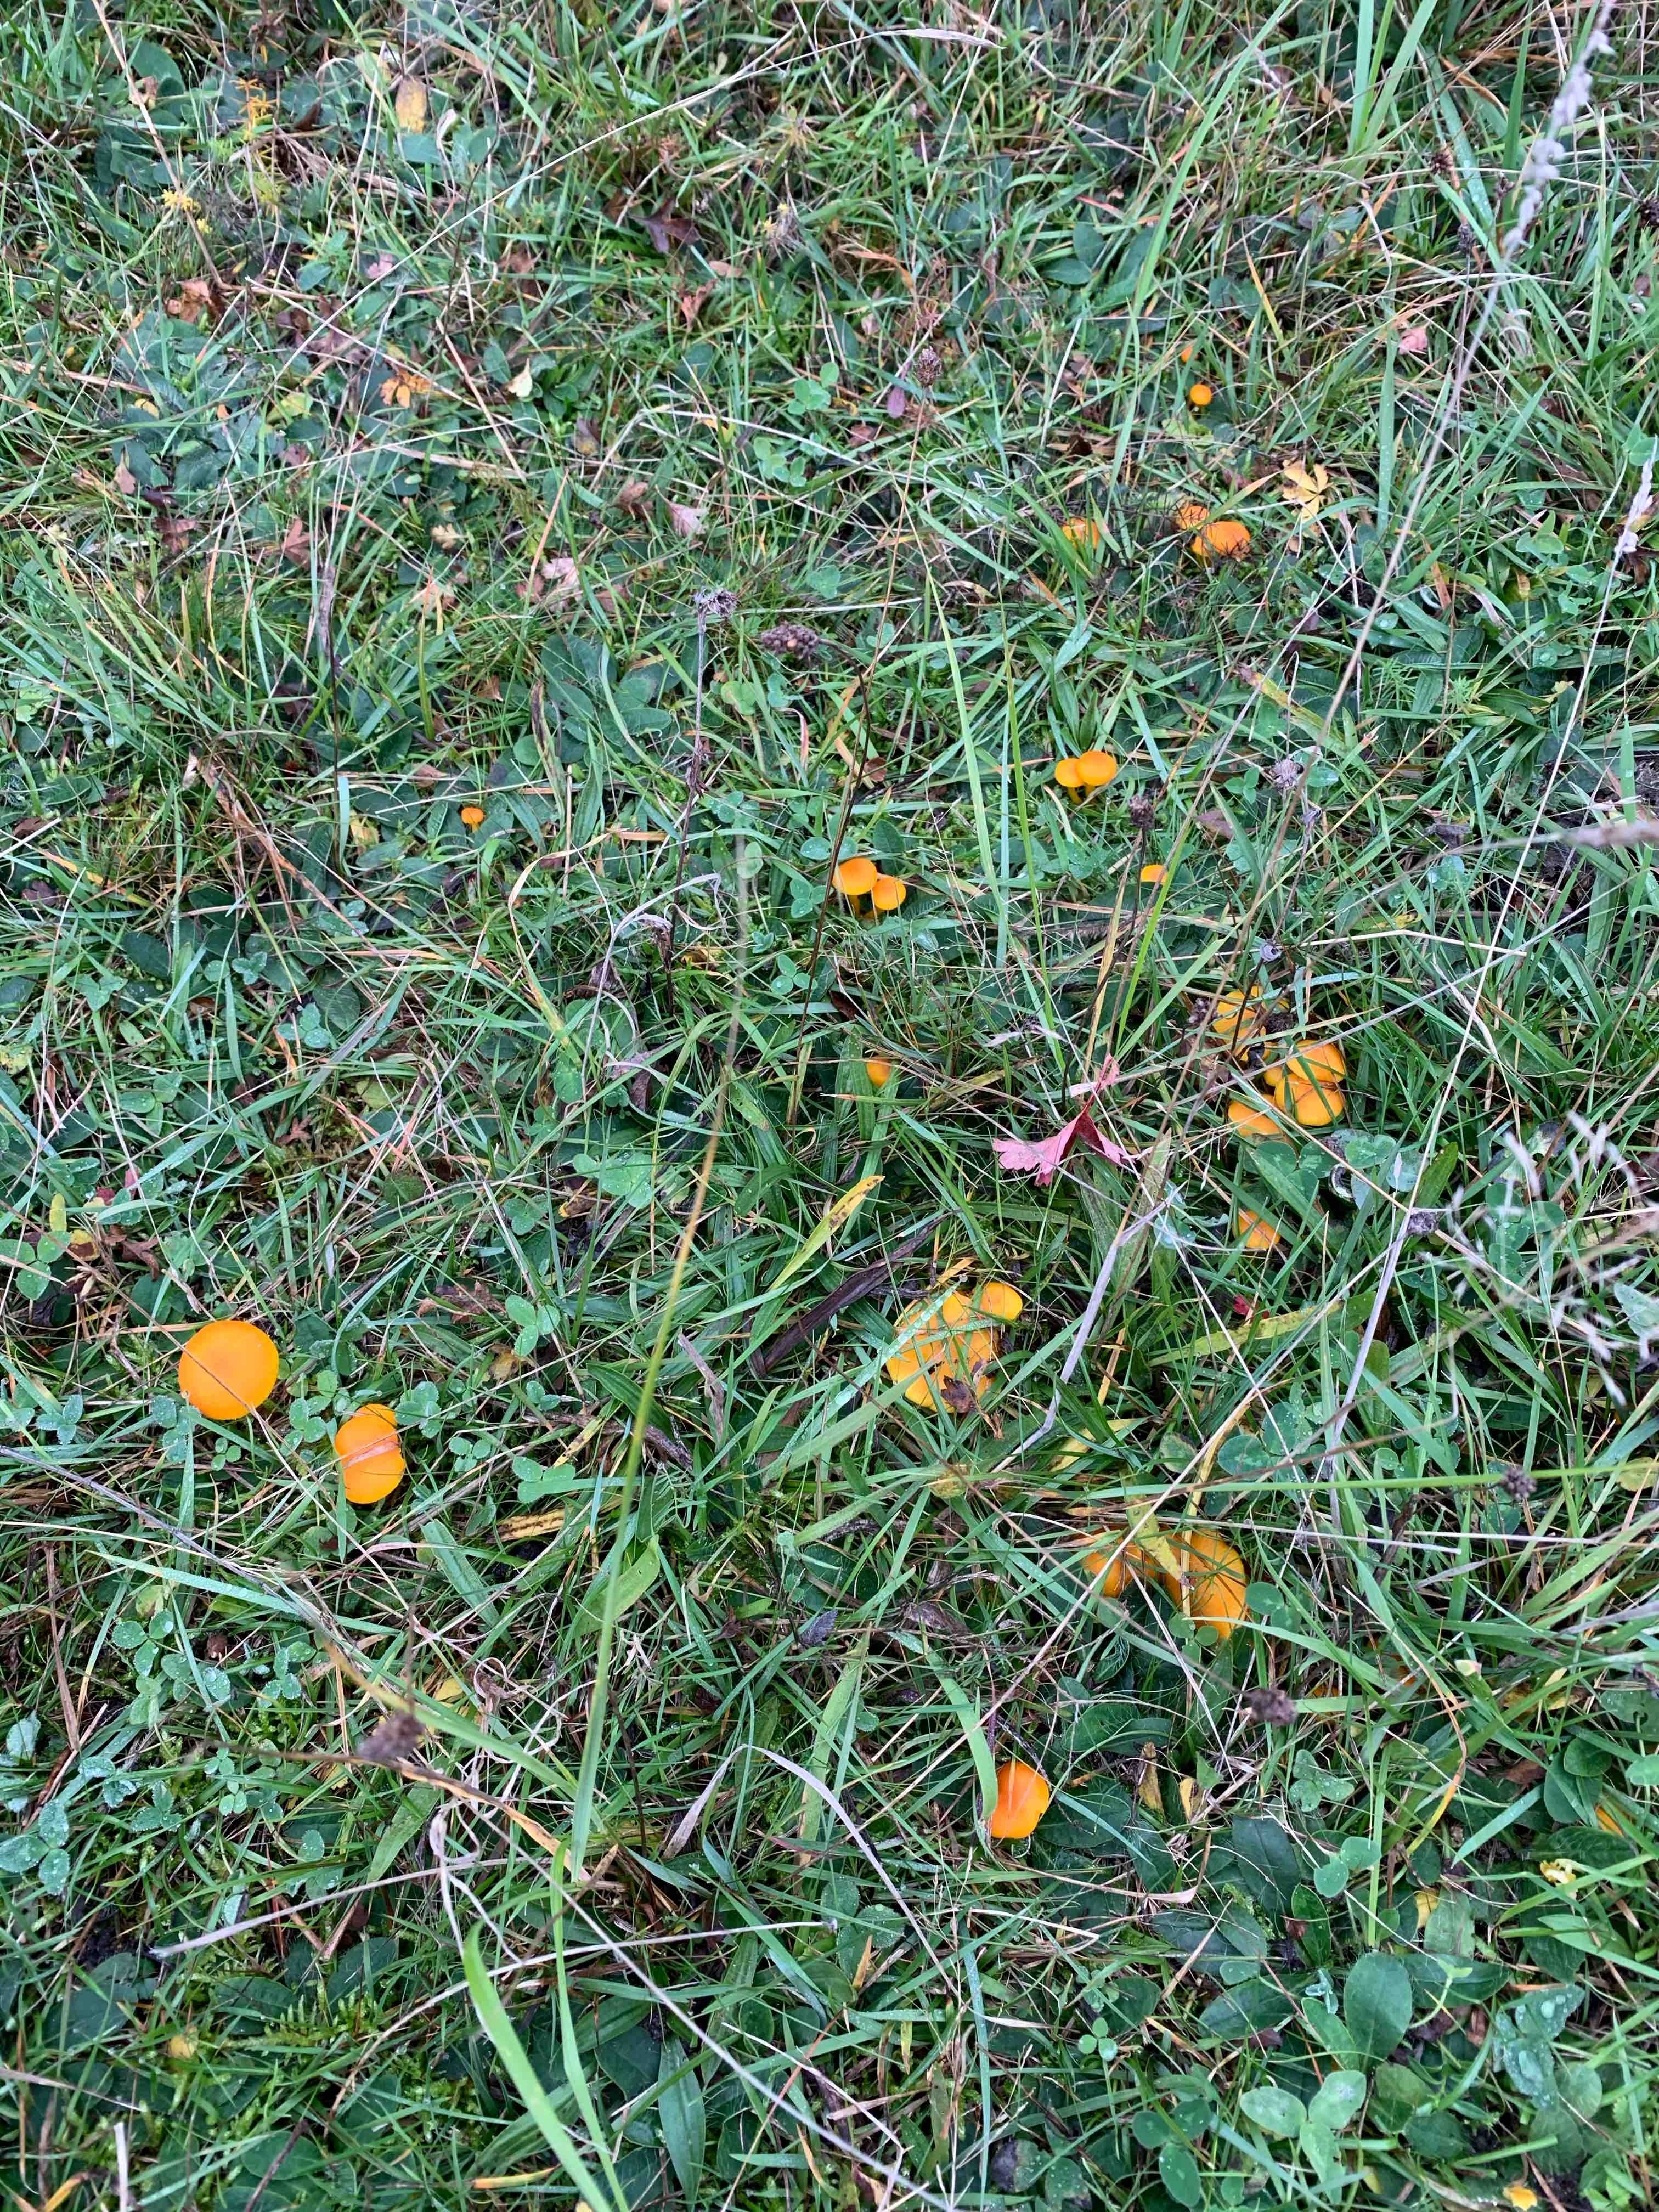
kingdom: Fungi
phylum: Basidiomycota
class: Agaricomycetes
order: Agaricales
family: Hygrophoraceae
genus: Hygrocybe
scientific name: Hygrocybe ceracea
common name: voksgul vokshat
